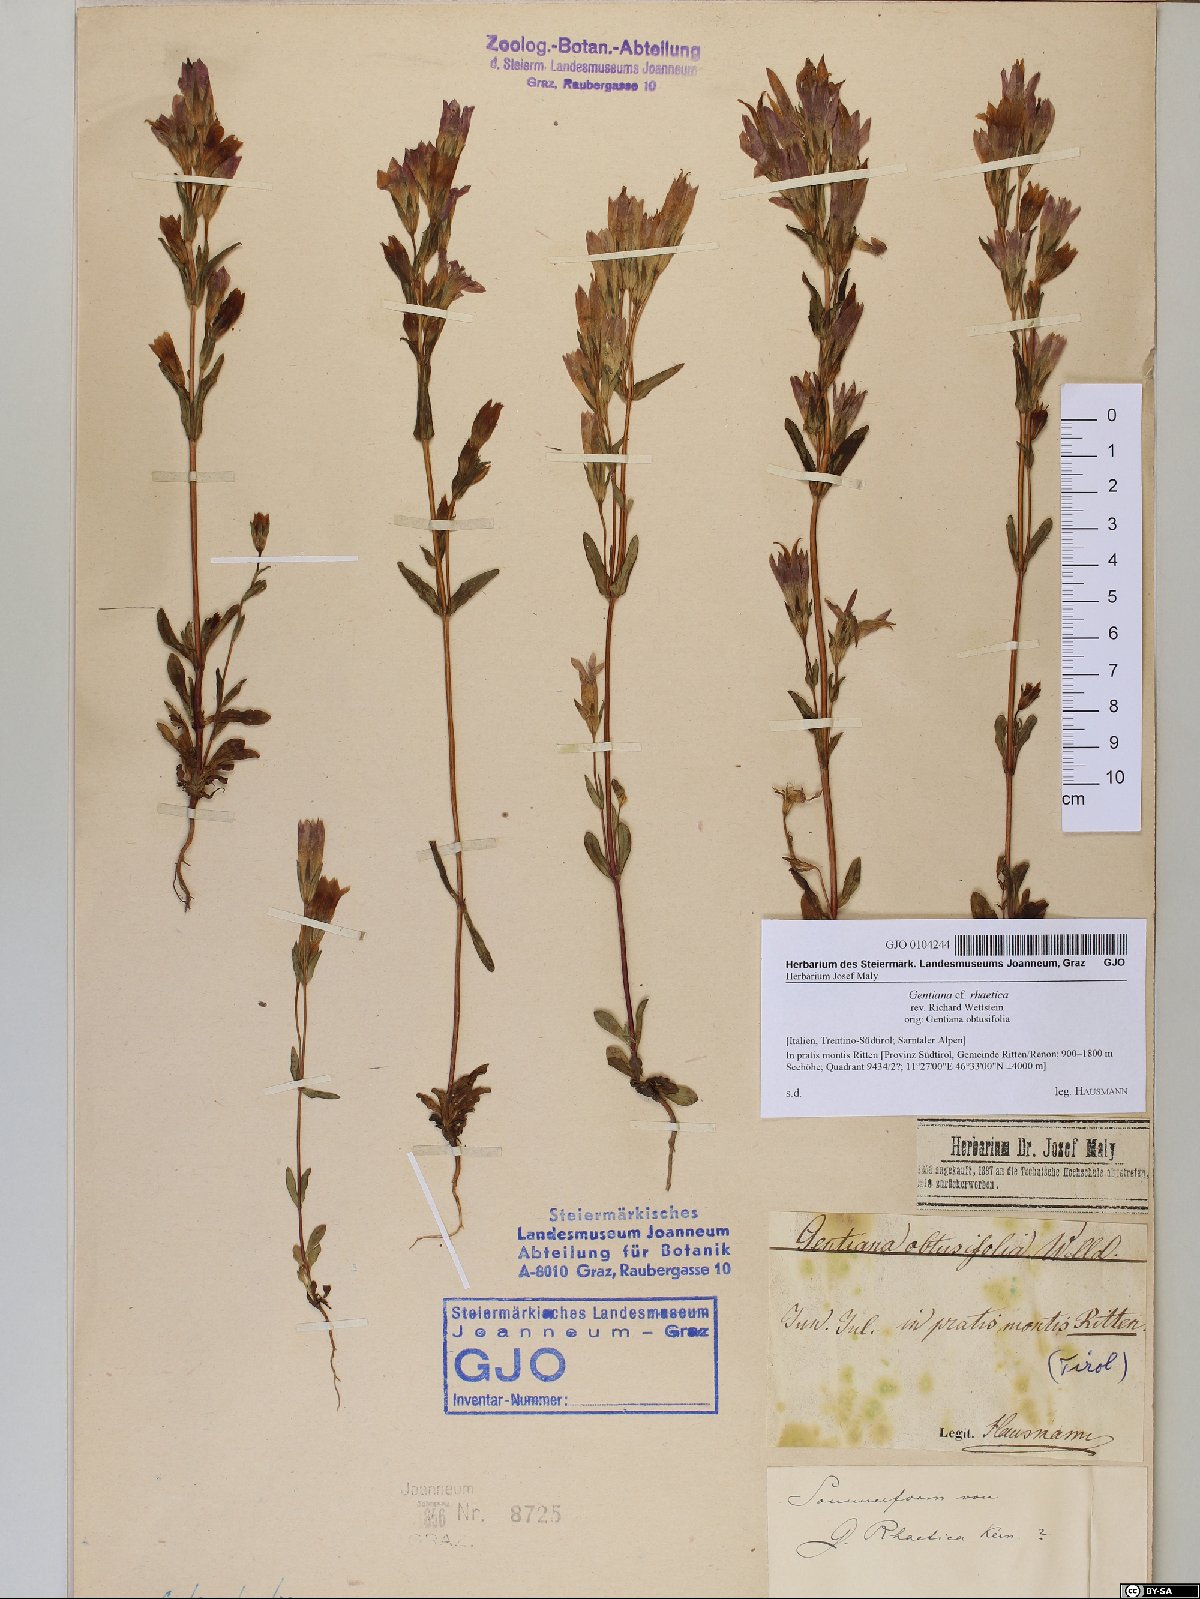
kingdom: Plantae
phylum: Tracheophyta
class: Magnoliopsida
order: Gentianales
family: Gentianaceae
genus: Gentianella
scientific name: Gentianella rhaetica
